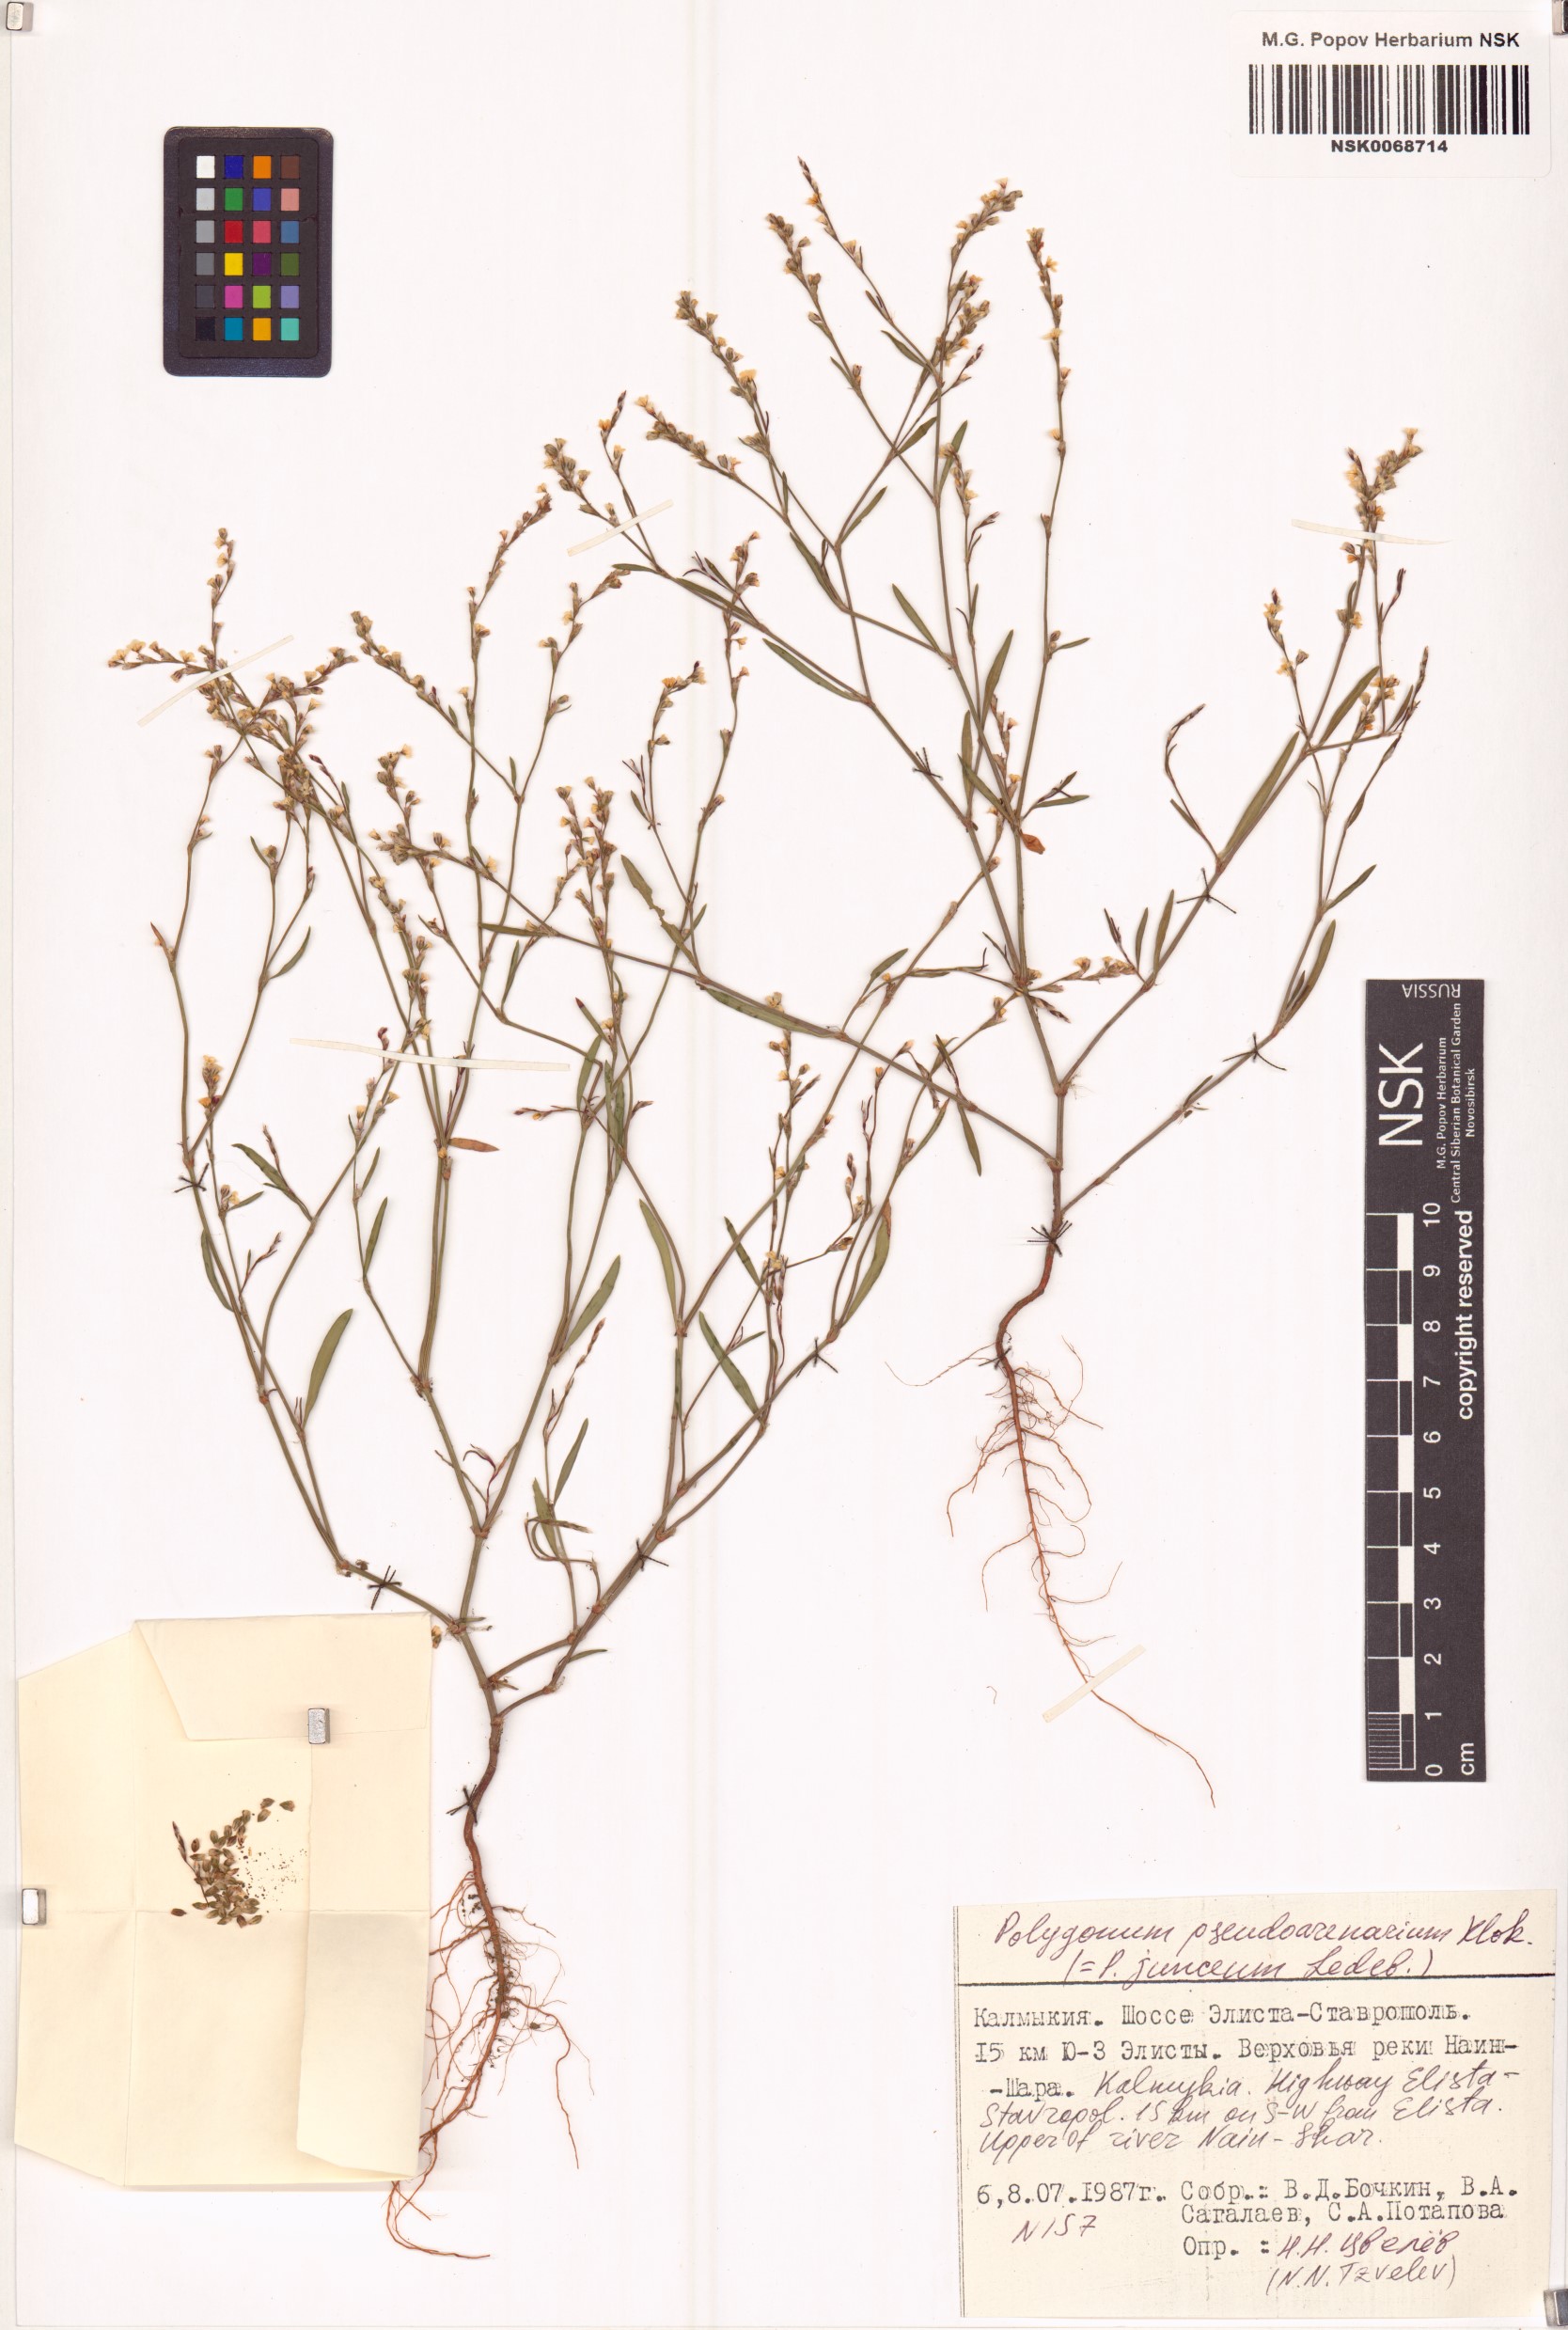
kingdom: Plantae
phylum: Tracheophyta
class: Magnoliopsida
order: Caryophyllales
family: Polygonaceae
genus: Polygonum
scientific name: Polygonum arenarium
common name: Lesser red-knotgrass
